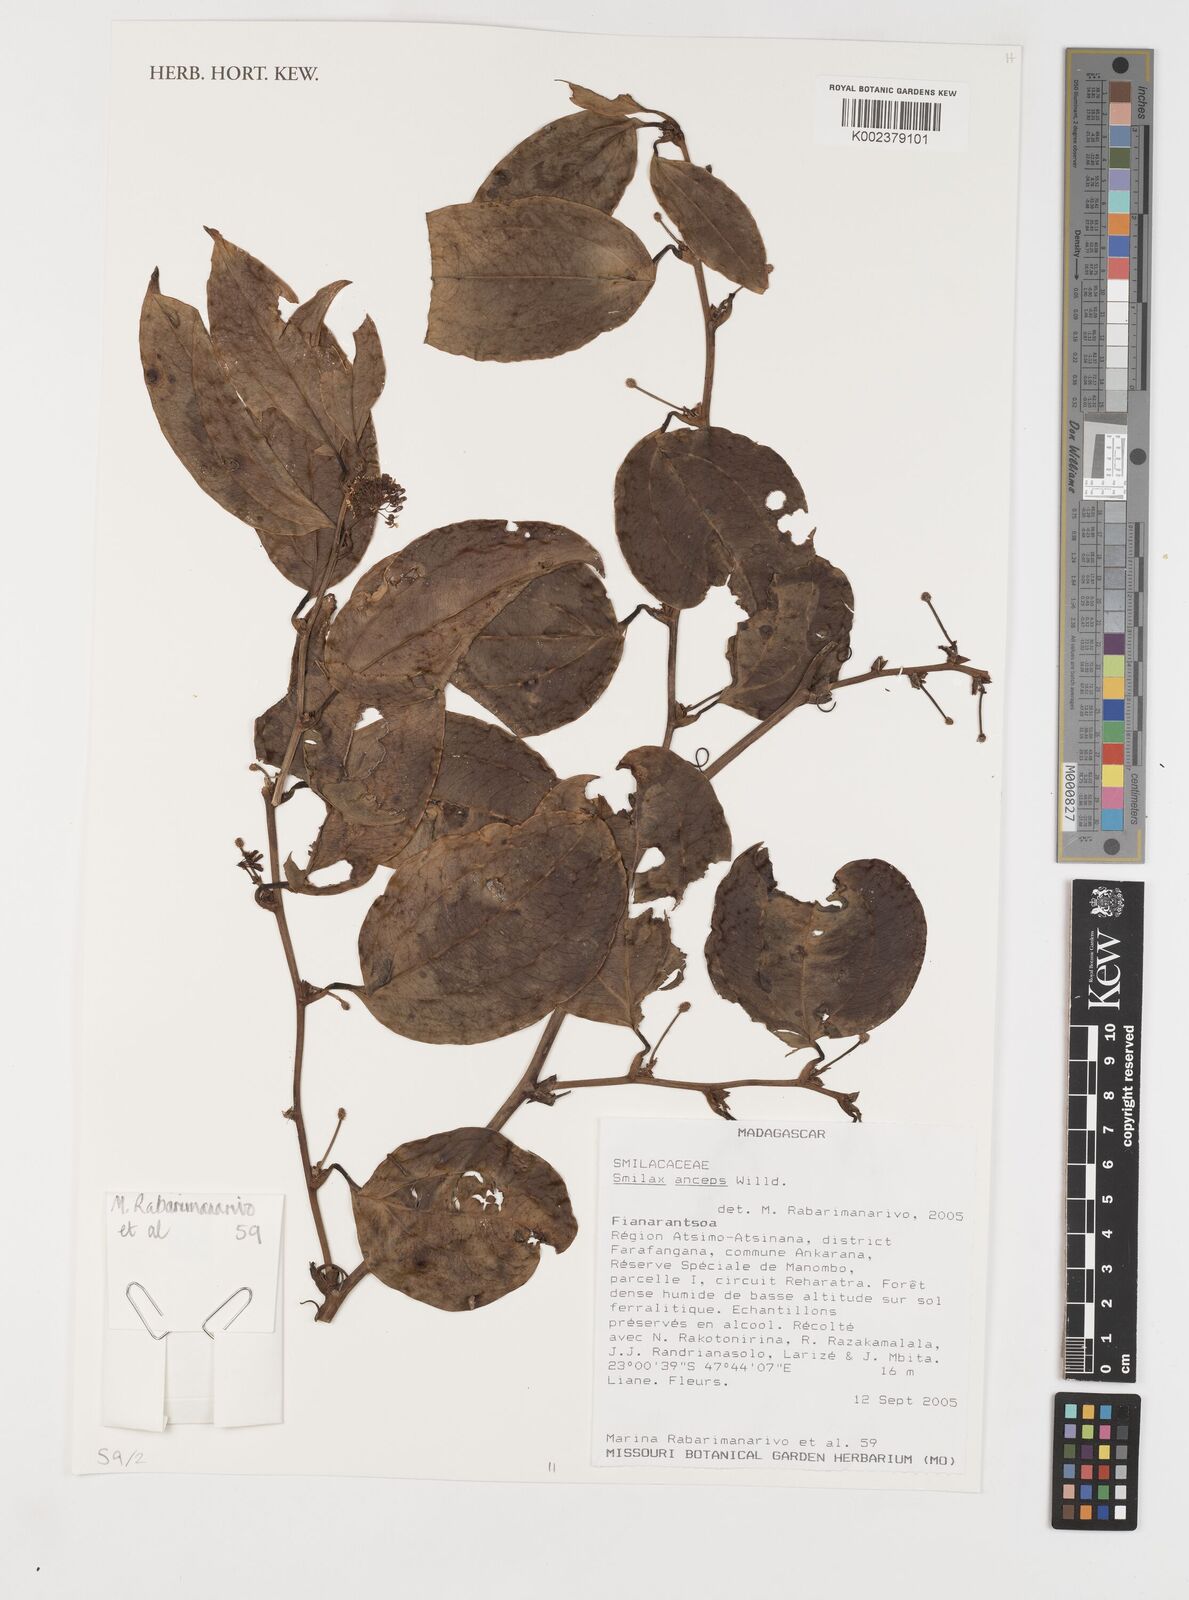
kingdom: Plantae
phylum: Tracheophyta
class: Liliopsida
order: Liliales
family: Smilacaceae
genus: Smilax
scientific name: Smilax anceps
